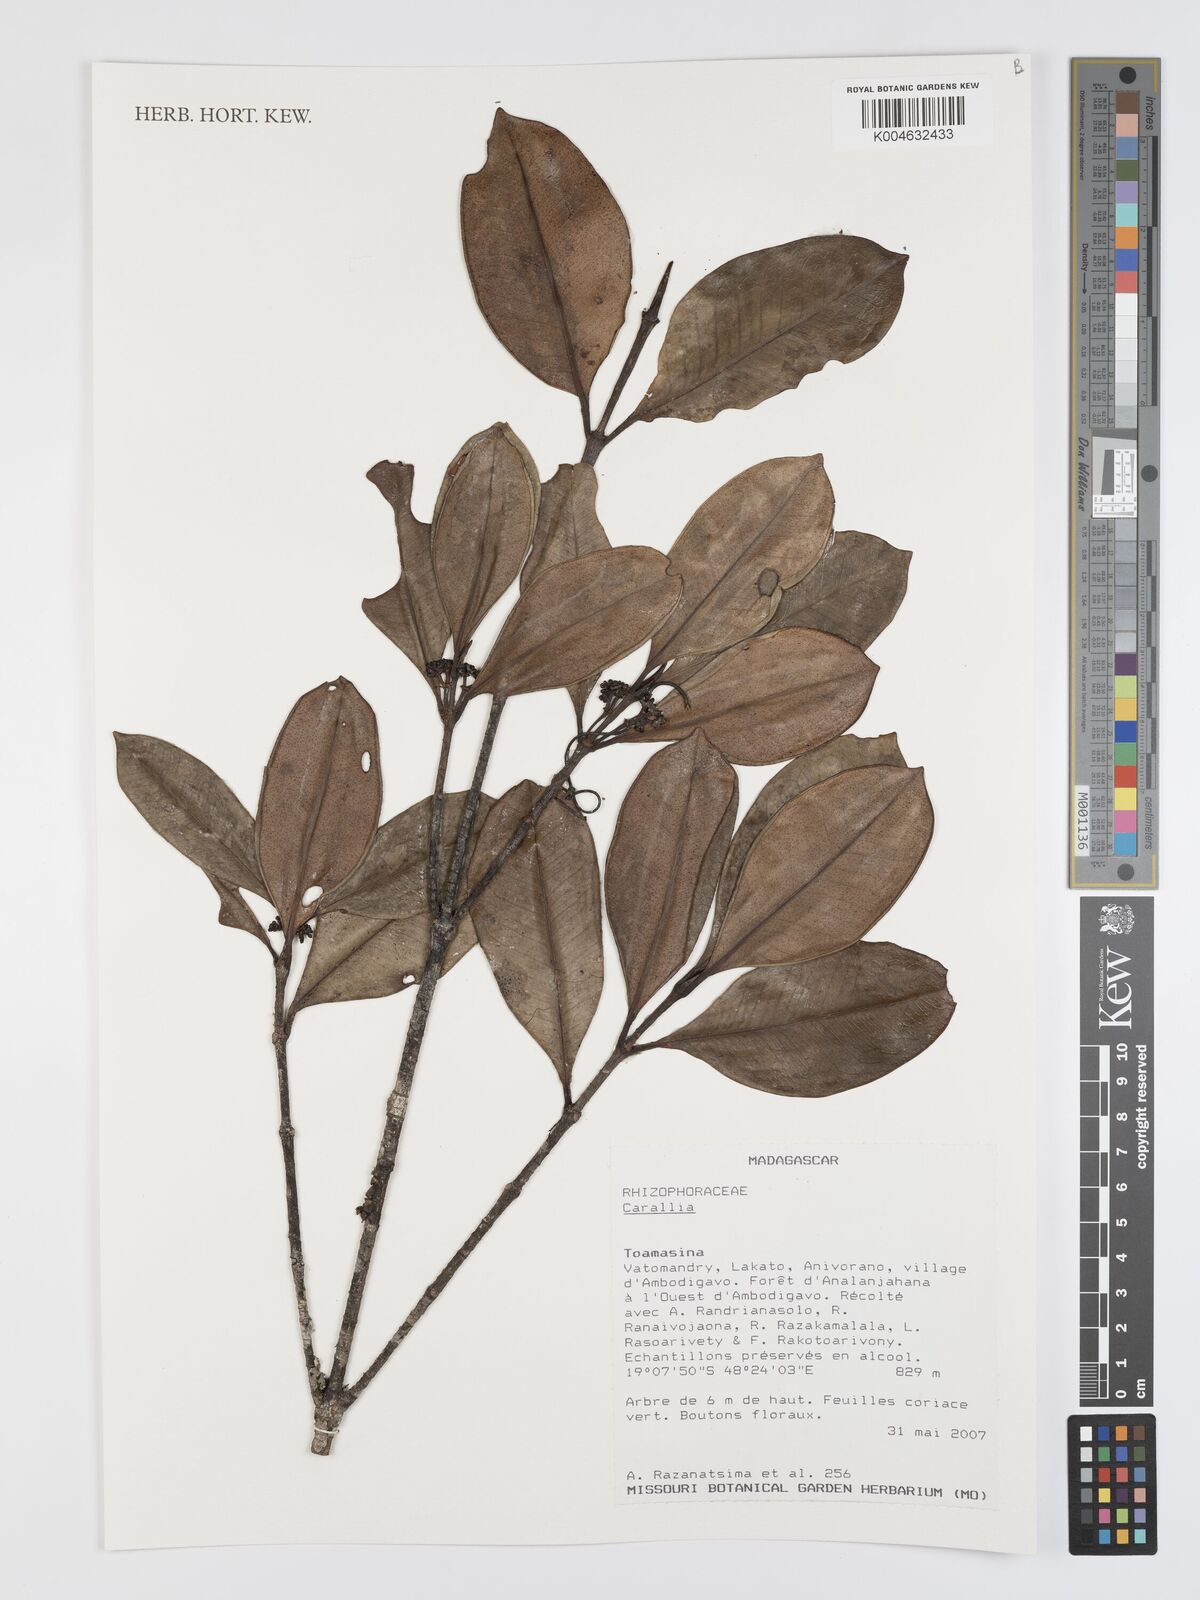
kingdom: Plantae
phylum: Tracheophyta
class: Magnoliopsida
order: Malpighiales
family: Rhizophoraceae
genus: Carallia
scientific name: Carallia
